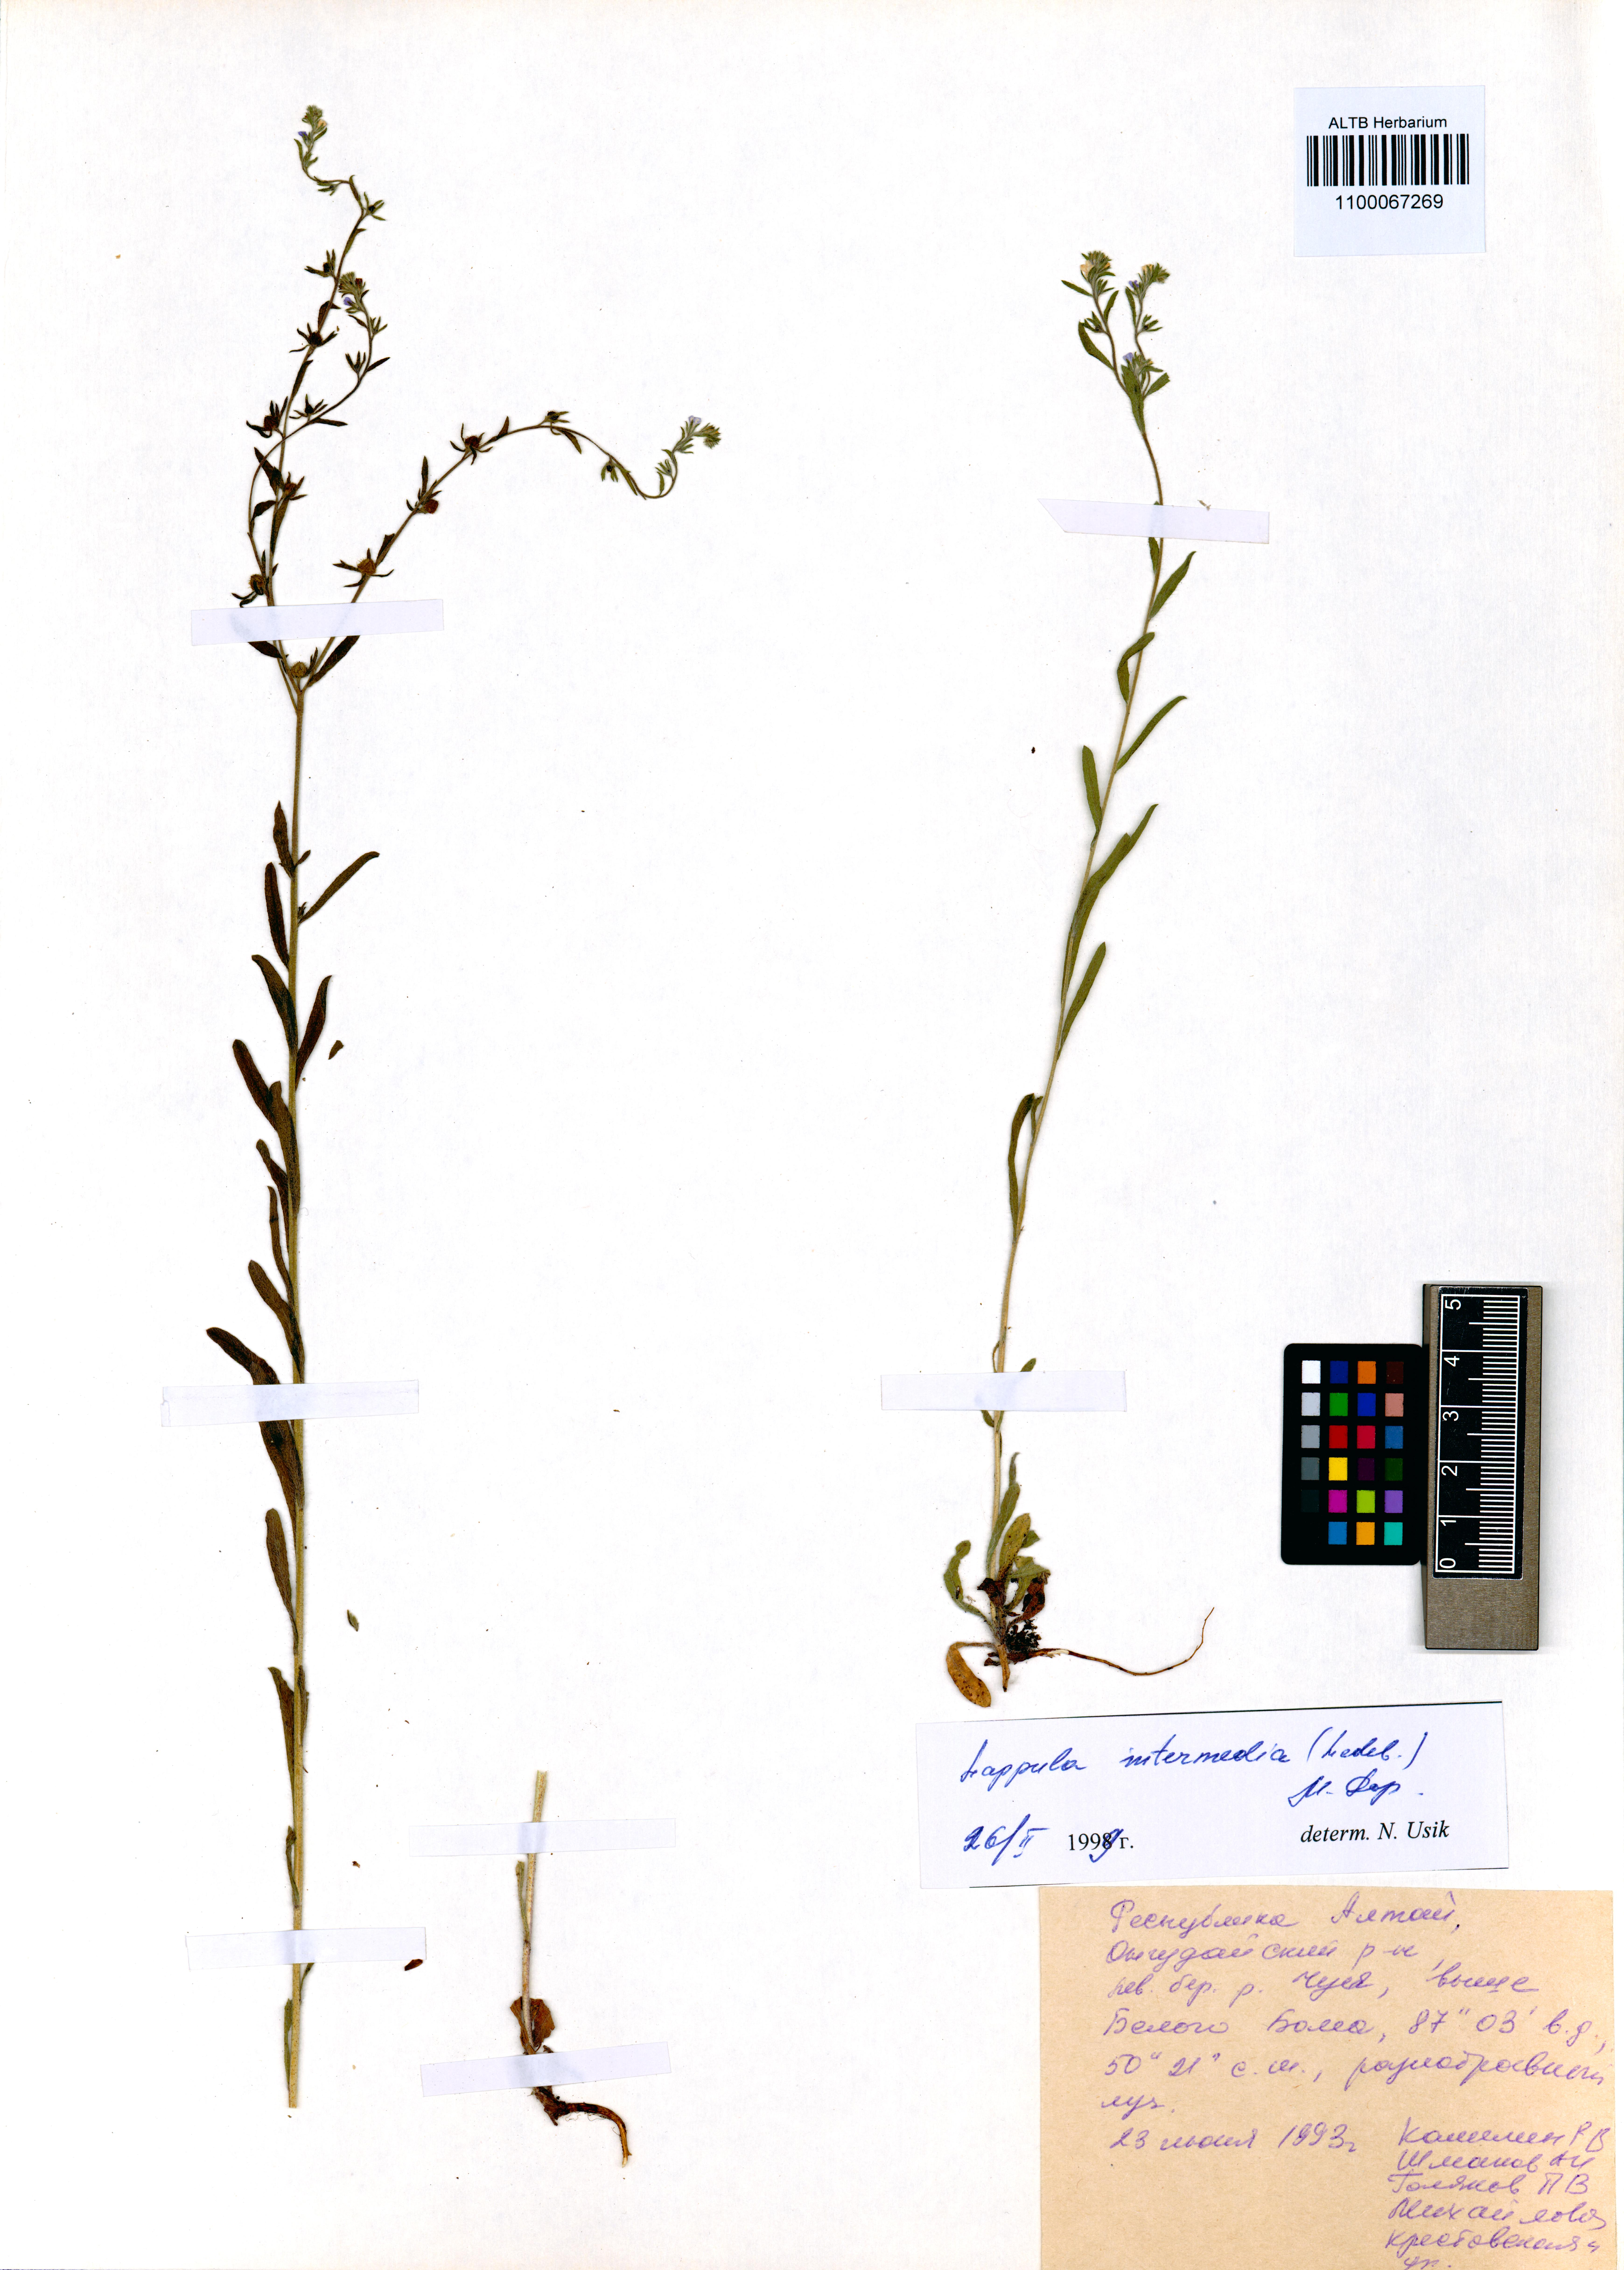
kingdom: Plantae
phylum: Tracheophyta
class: Magnoliopsida
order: Boraginales
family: Boraginaceae
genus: Lappula
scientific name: Lappula intermedia
